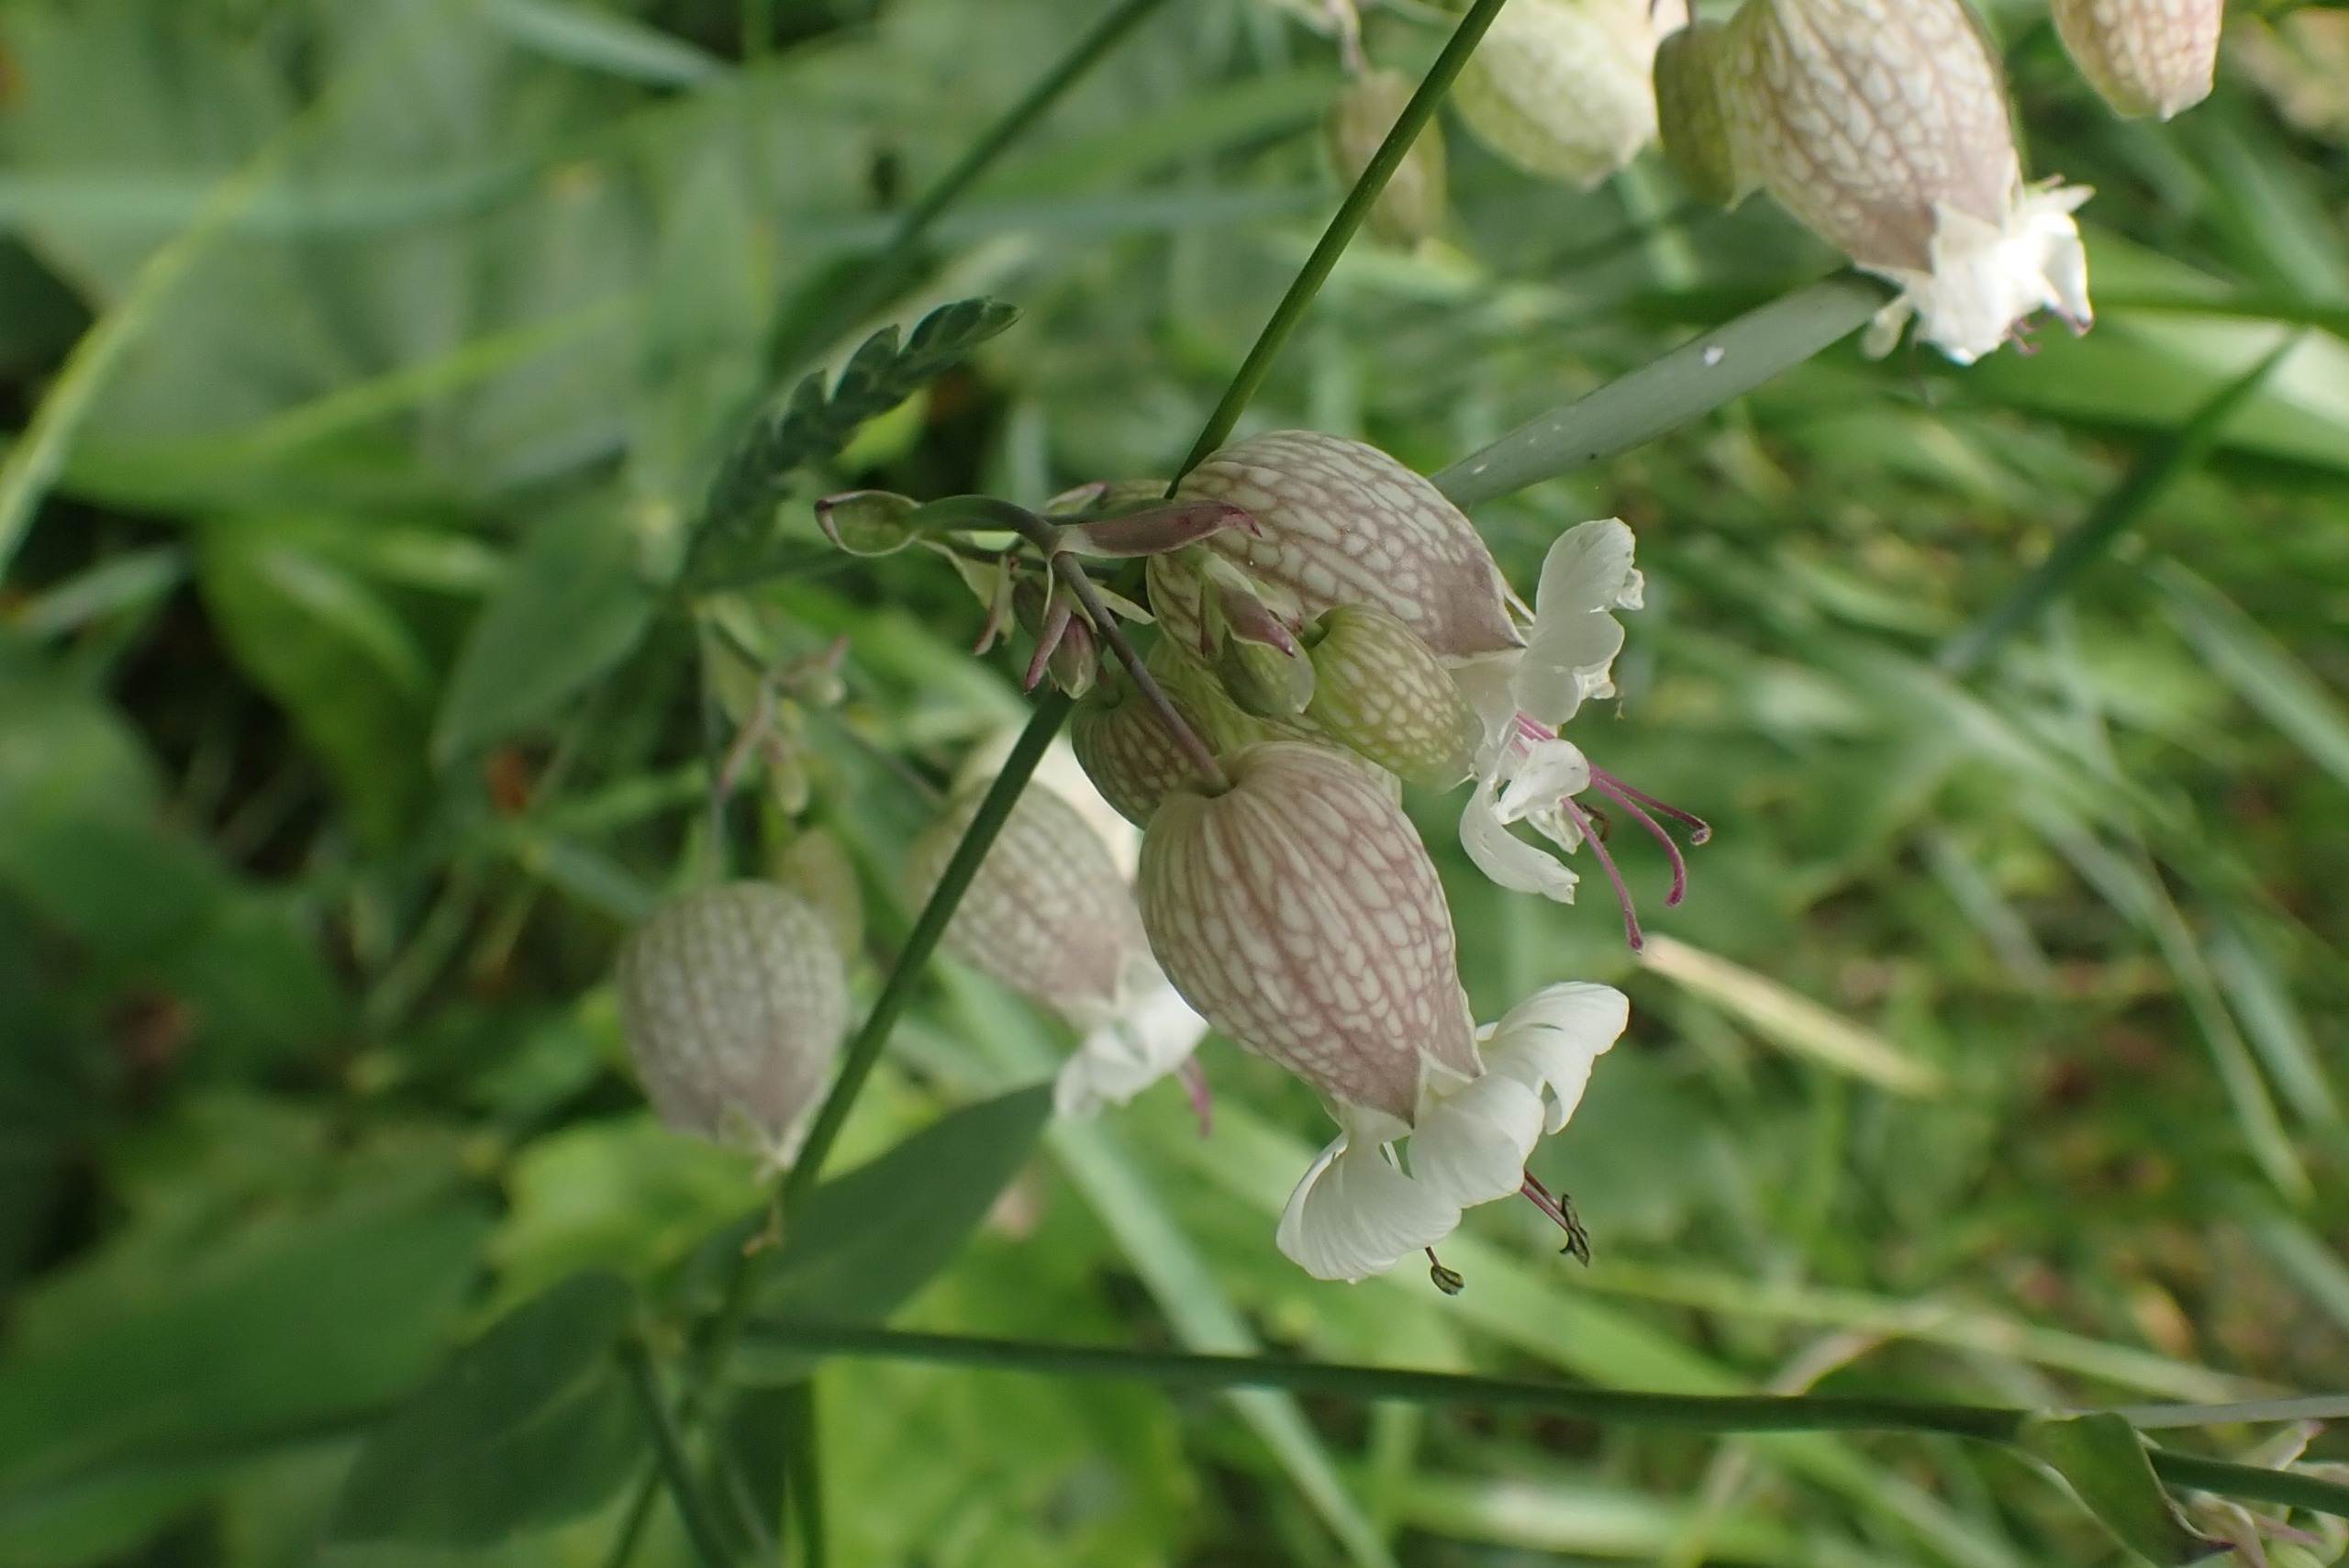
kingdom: Plantae
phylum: Tracheophyta
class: Magnoliopsida
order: Caryophyllales
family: Caryophyllaceae
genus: Silene
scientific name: Silene vulgaris
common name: Blæresmælde
